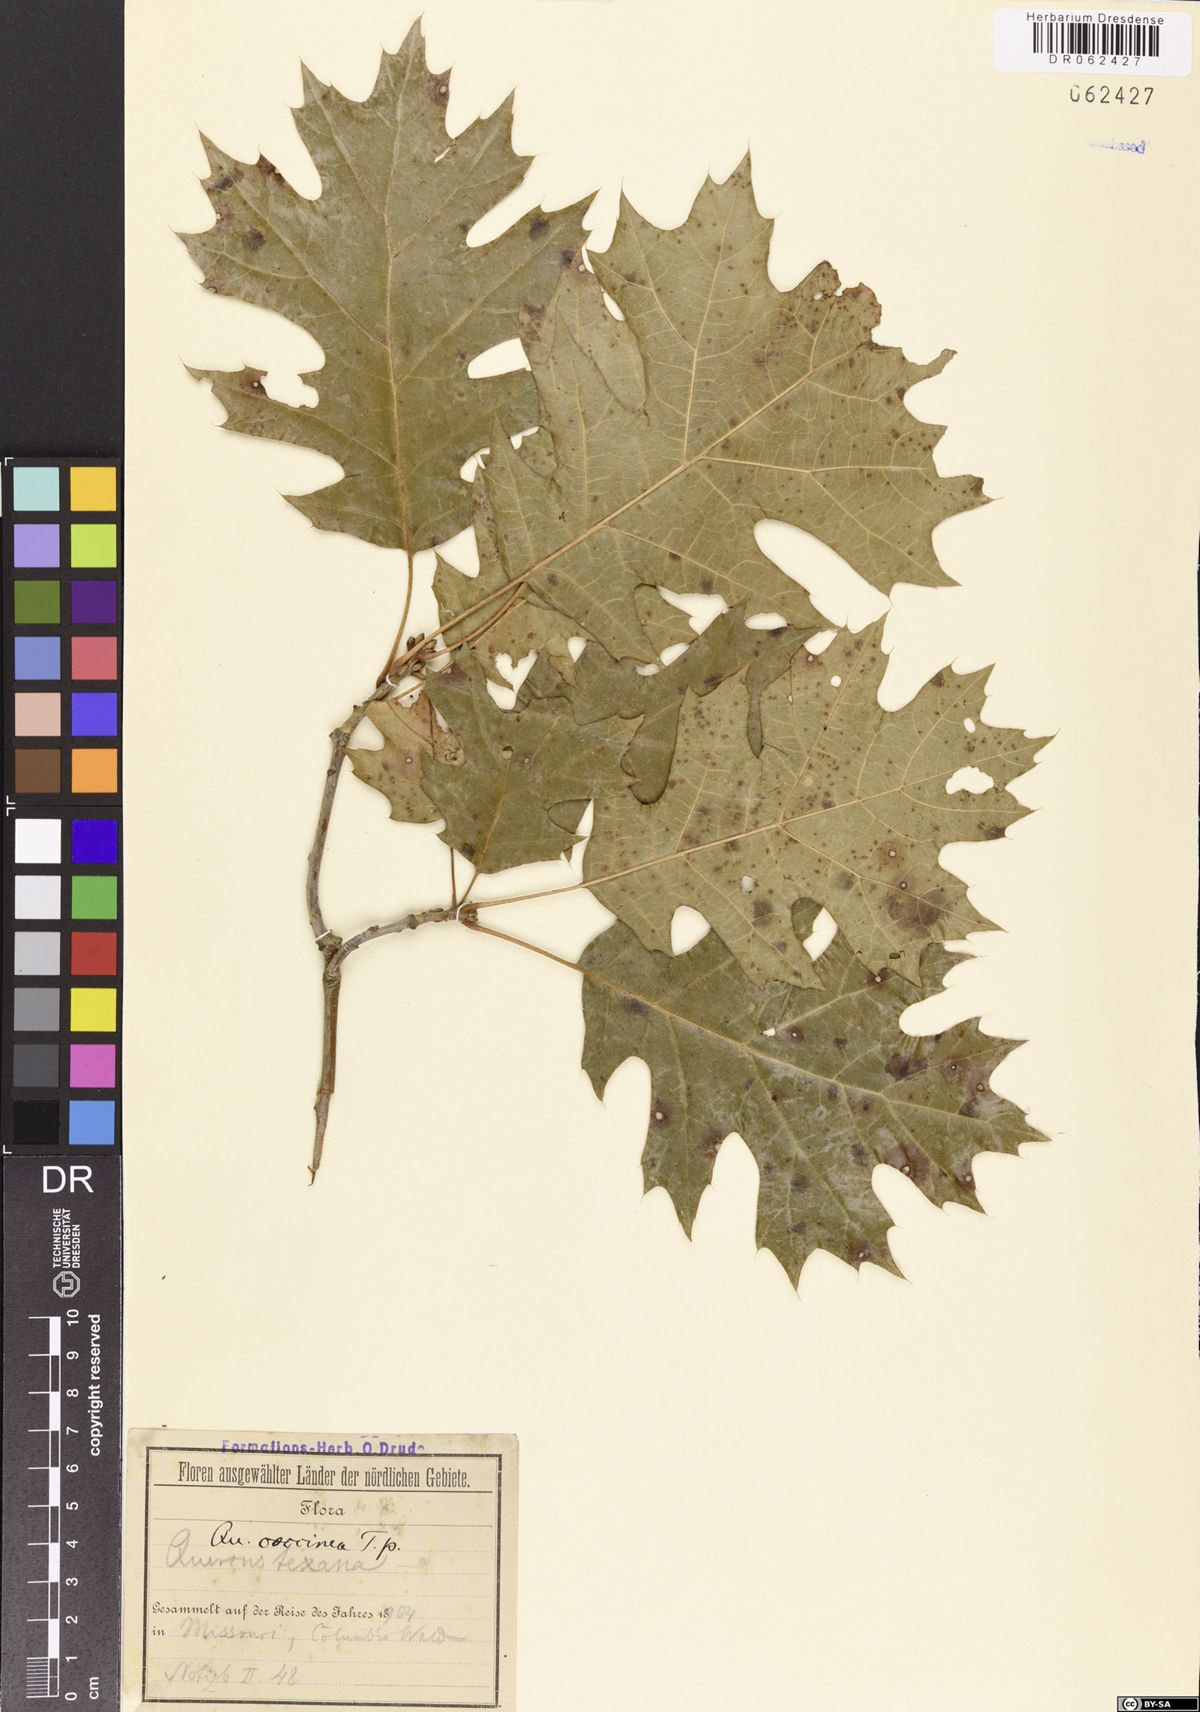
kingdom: Plantae
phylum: Tracheophyta
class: Magnoliopsida
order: Fagales
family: Fagaceae
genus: Quercus
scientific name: Quercus coccinea
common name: Scarlet oak
